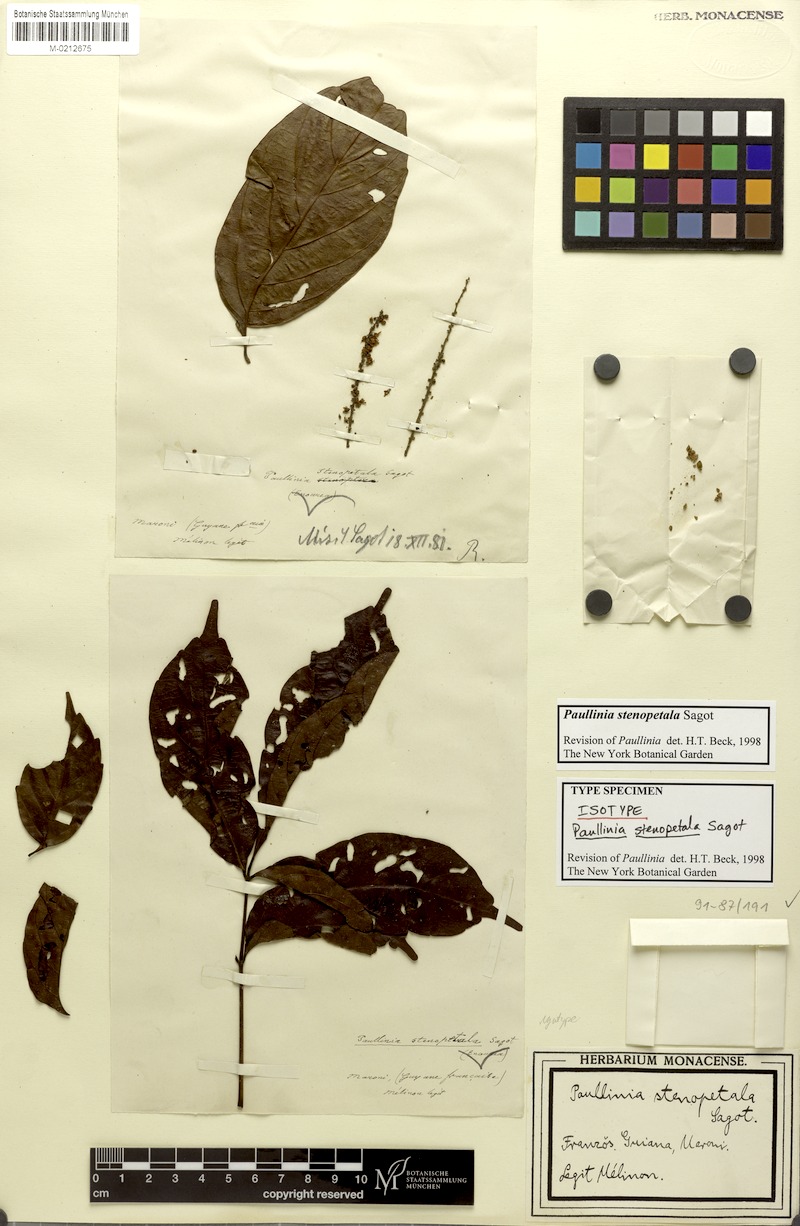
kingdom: Plantae
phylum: Tracheophyta
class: Magnoliopsida
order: Sapindales
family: Sapindaceae
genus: Paullinia
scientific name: Paullinia stenopetala
